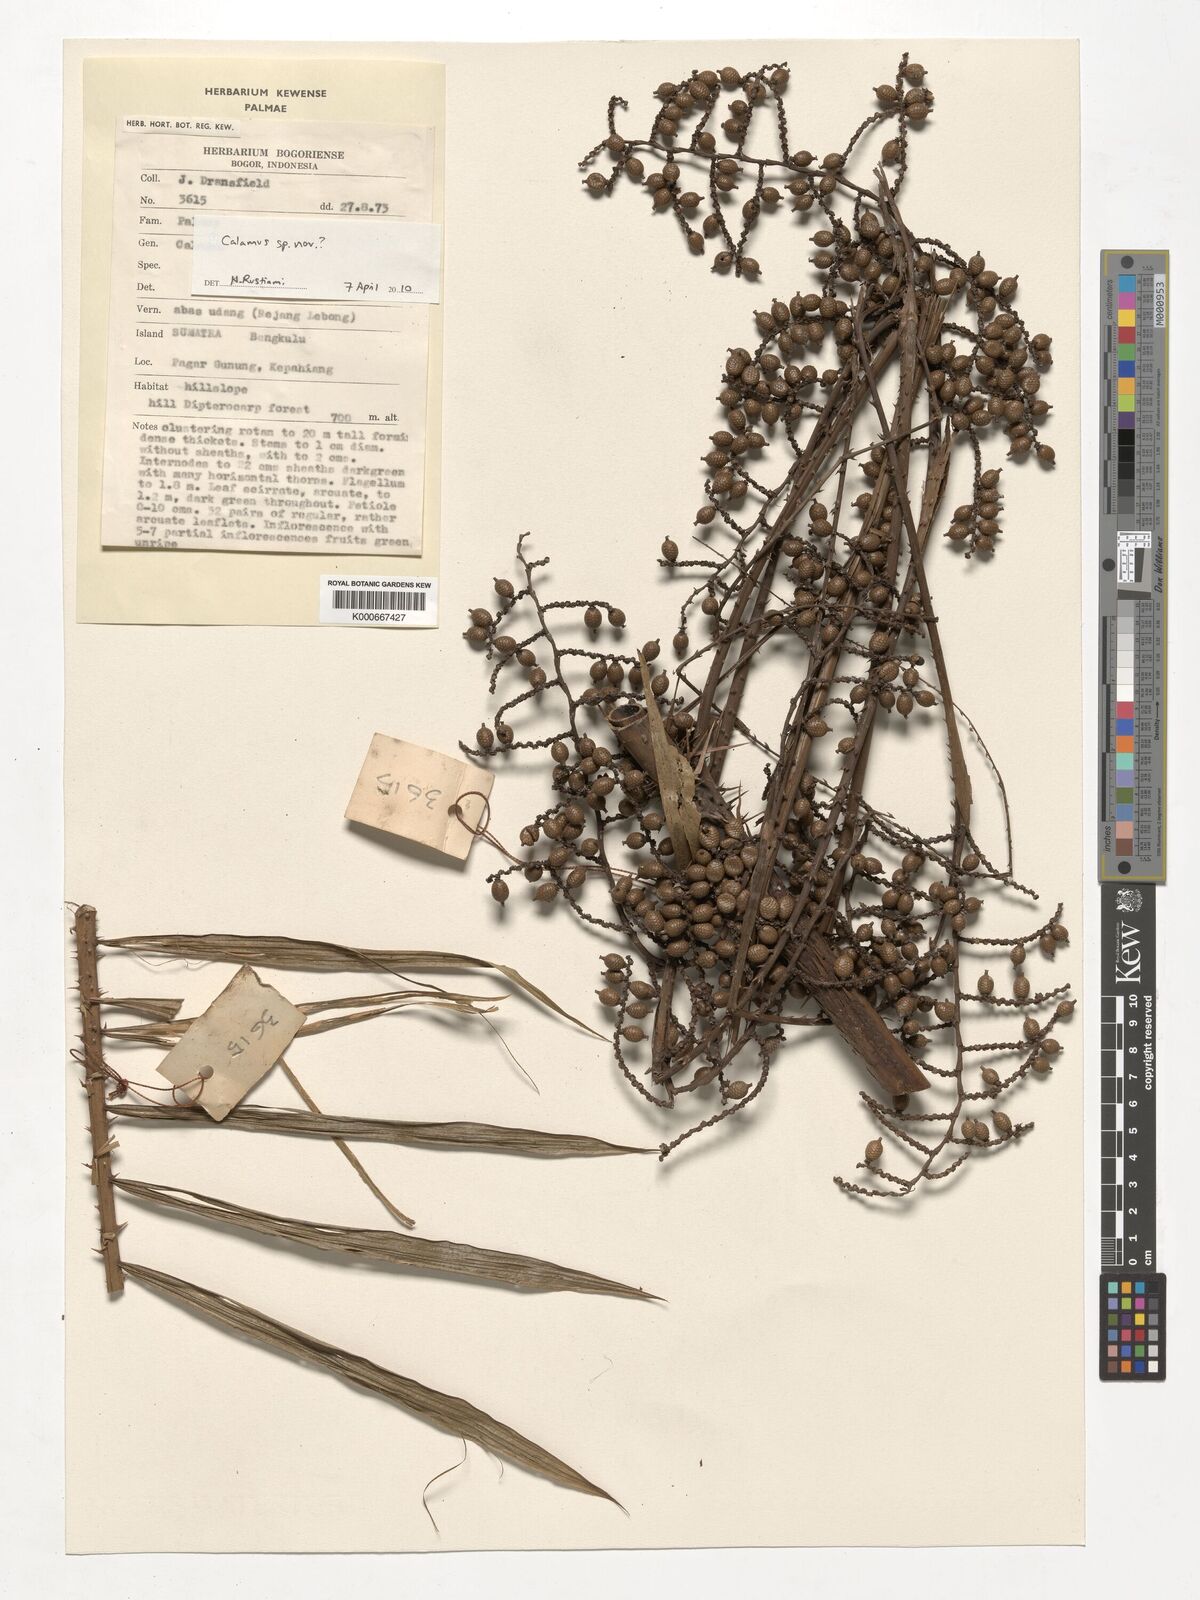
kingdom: Plantae
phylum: Tracheophyta
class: Liliopsida
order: Arecales
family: Arecaceae
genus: Calamus
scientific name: Calamus
